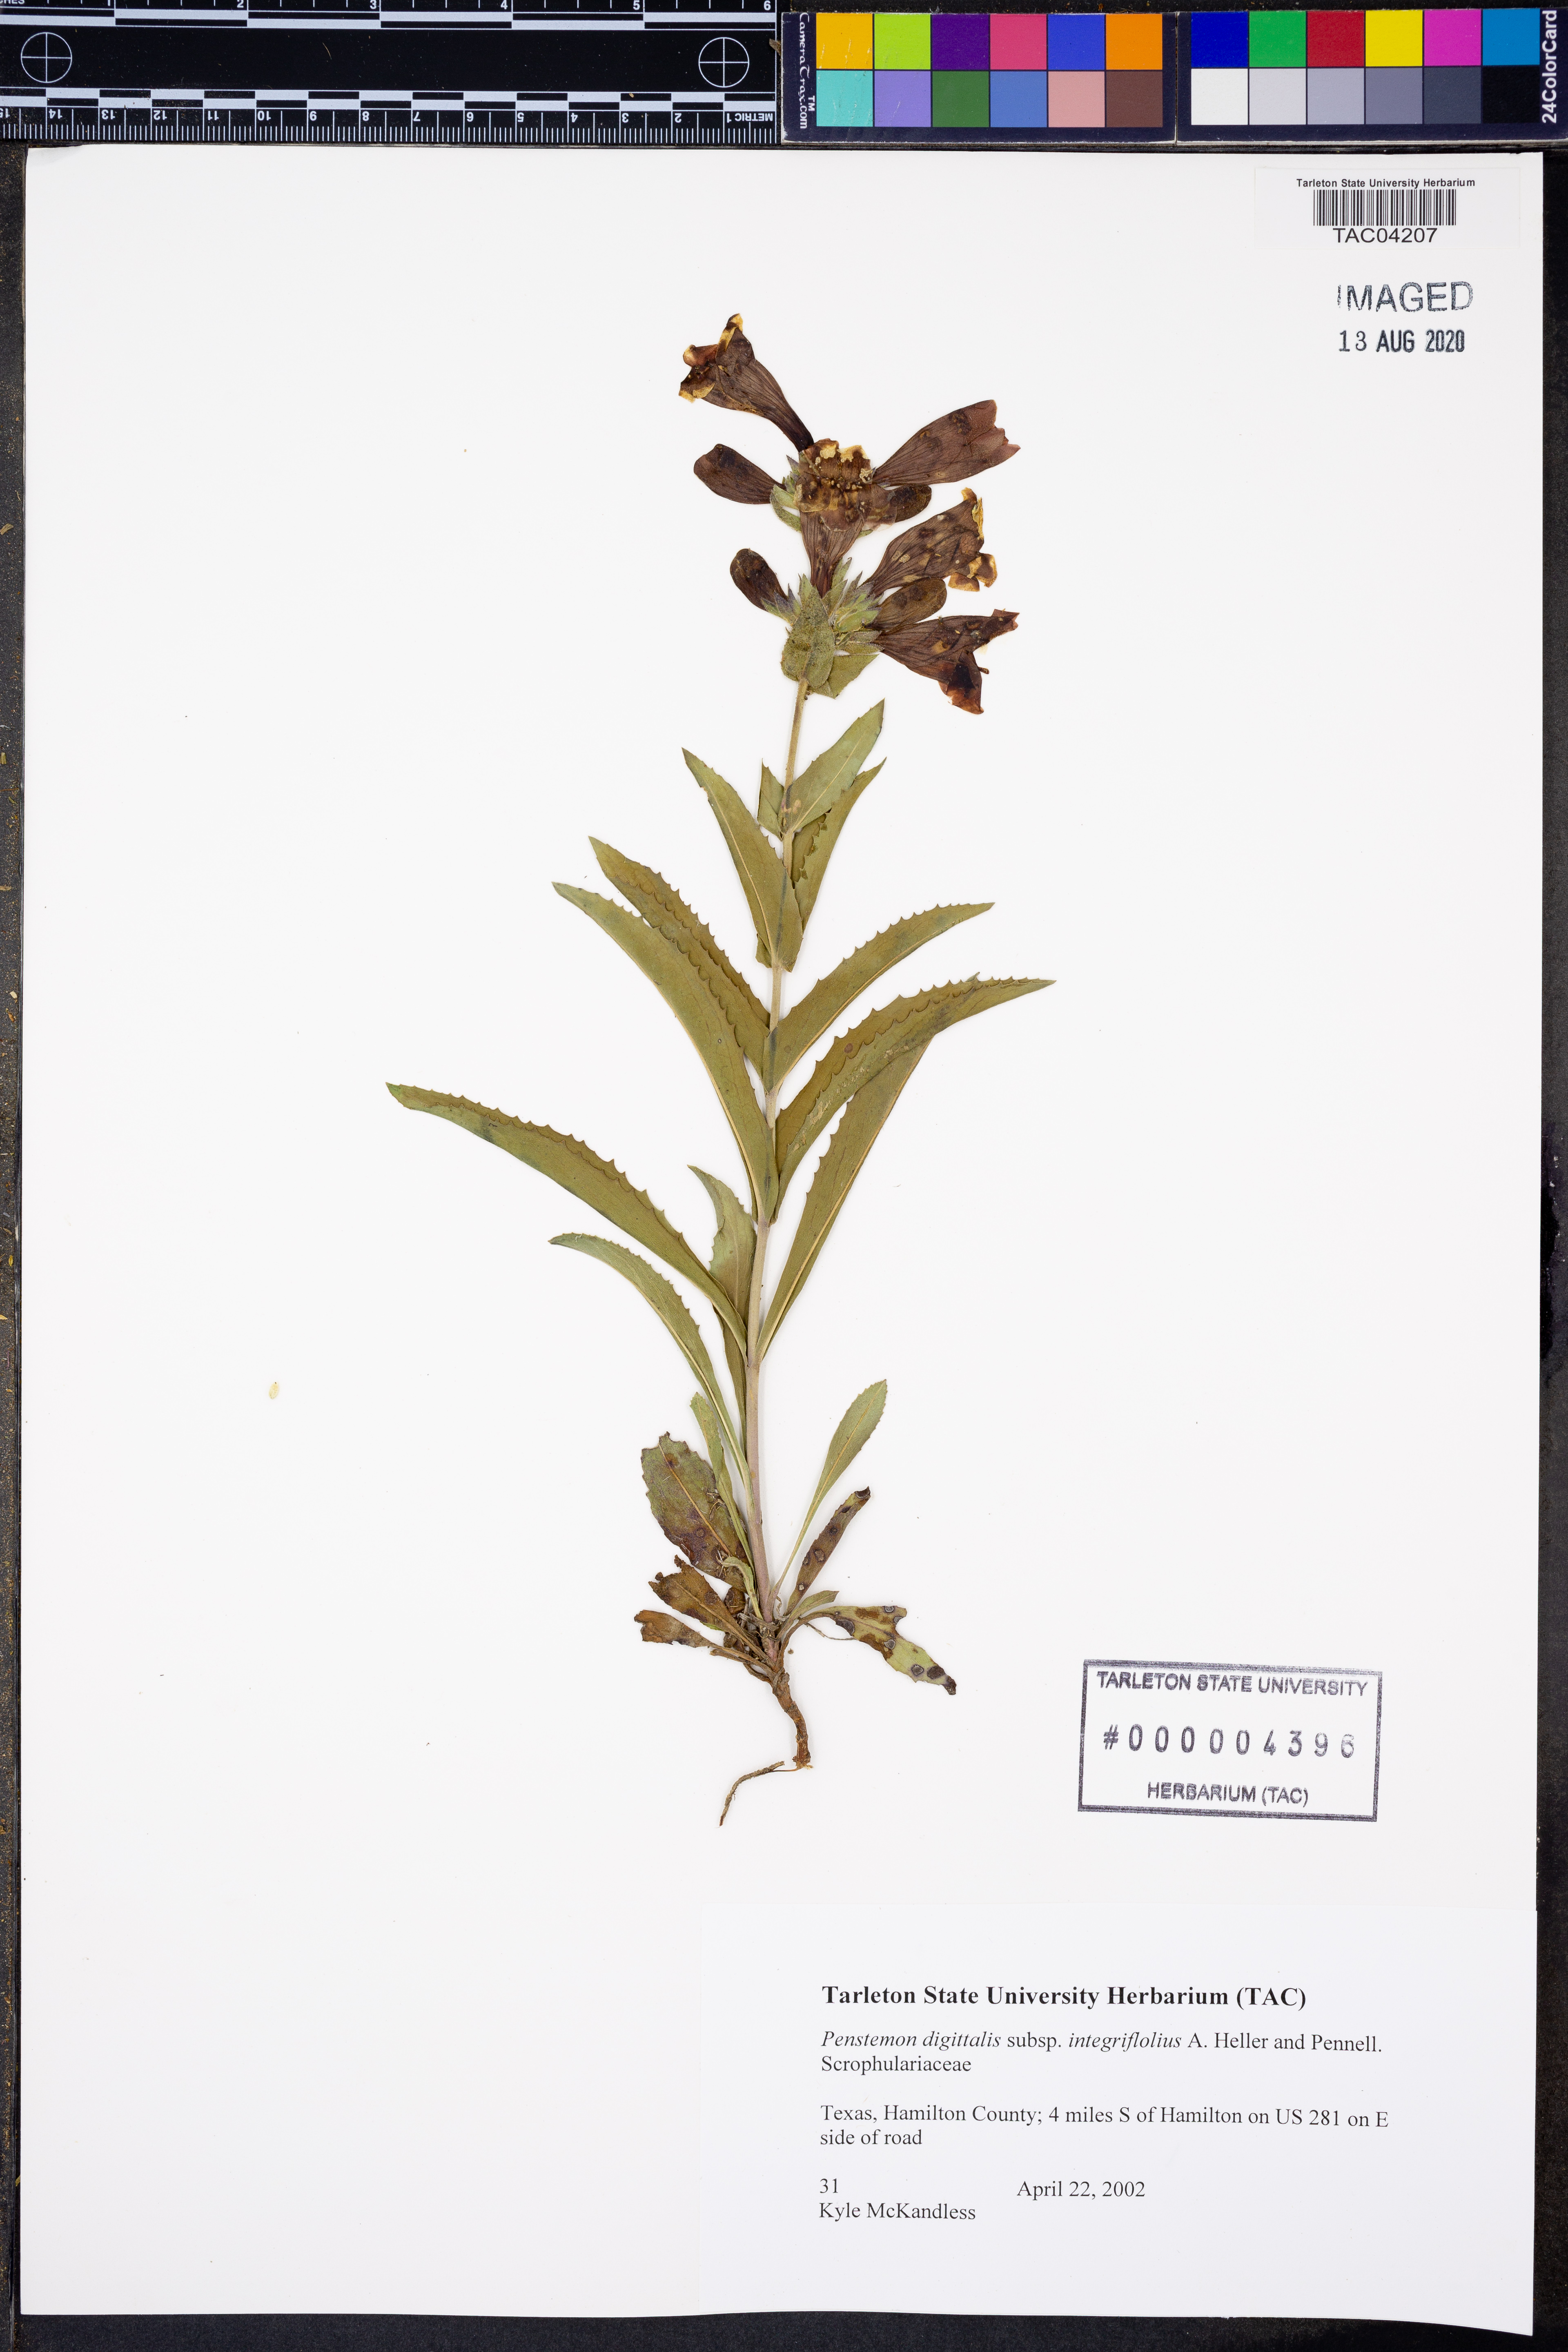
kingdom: Plantae
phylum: Tracheophyta
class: Magnoliopsida
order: Lamiales
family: Plantaginaceae
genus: Penstemon
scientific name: Penstemon digitalis
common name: Foxglove beardtongue
